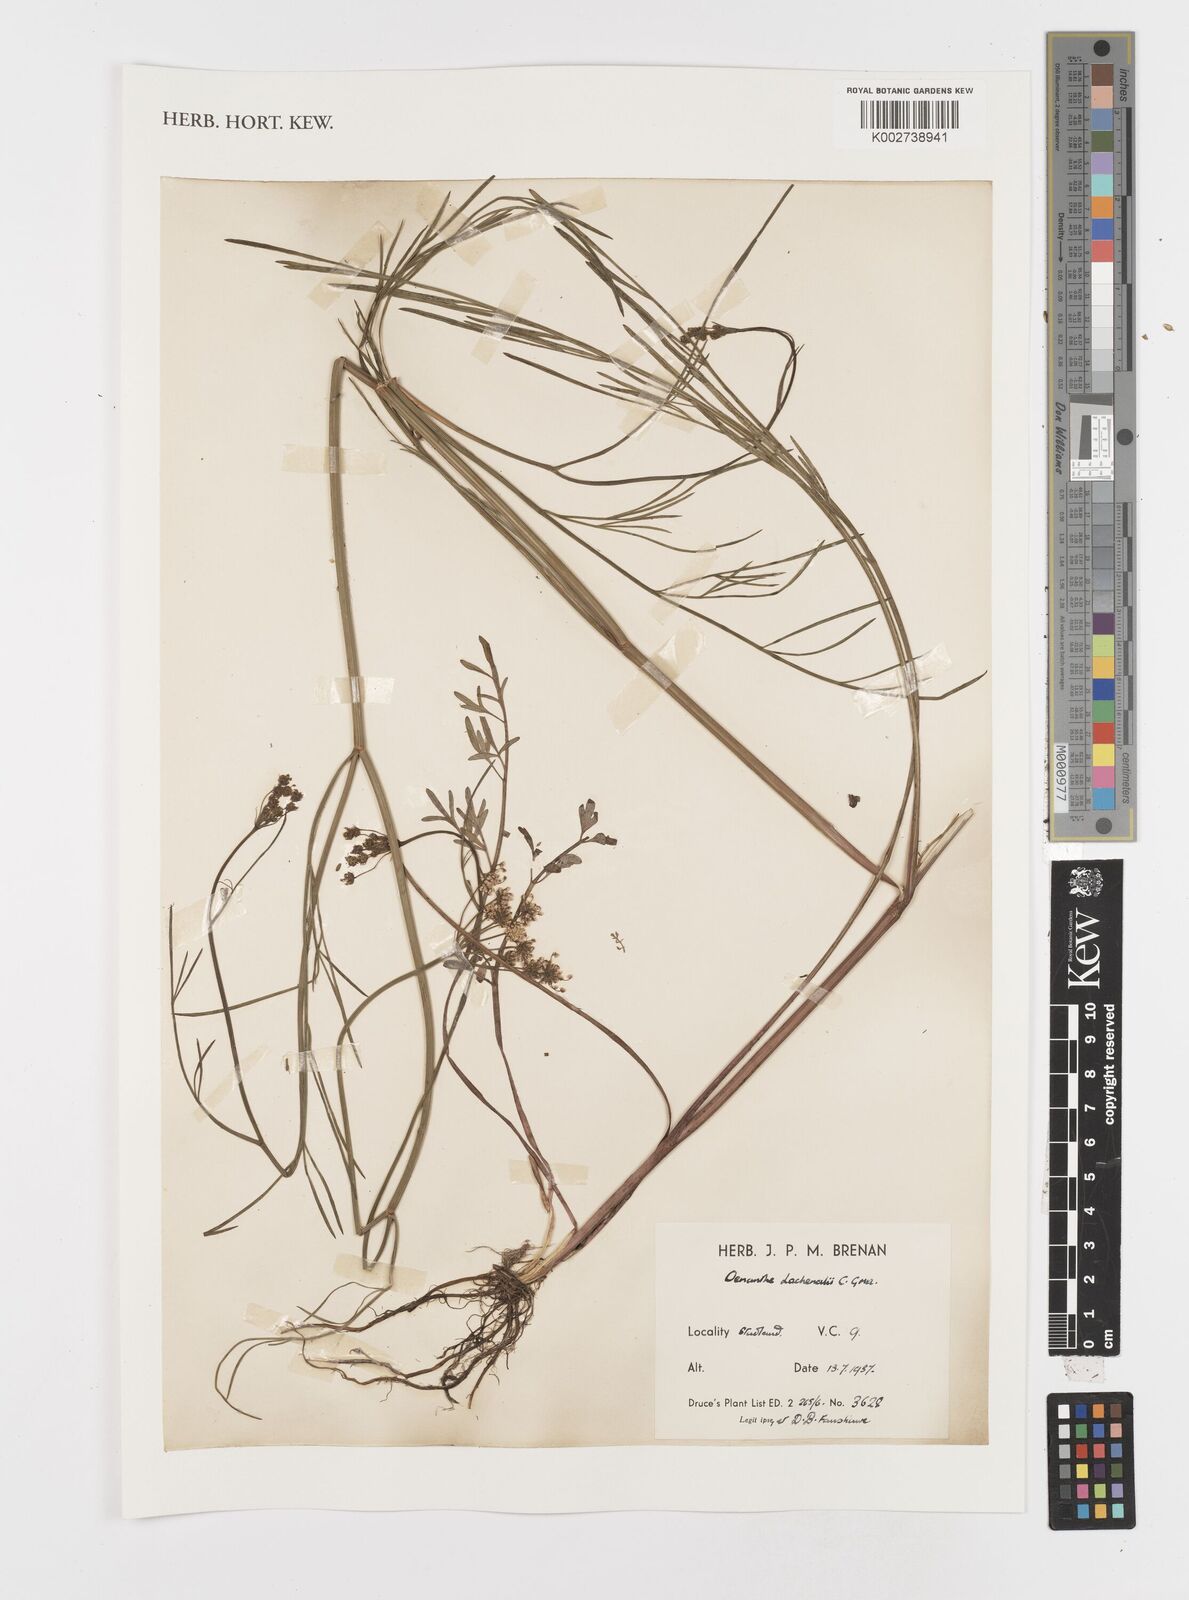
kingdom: Plantae
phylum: Tracheophyta
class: Magnoliopsida
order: Apiales
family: Apiaceae
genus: Oenanthe
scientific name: Oenanthe lachenalii
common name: Parsley water-dropwort
